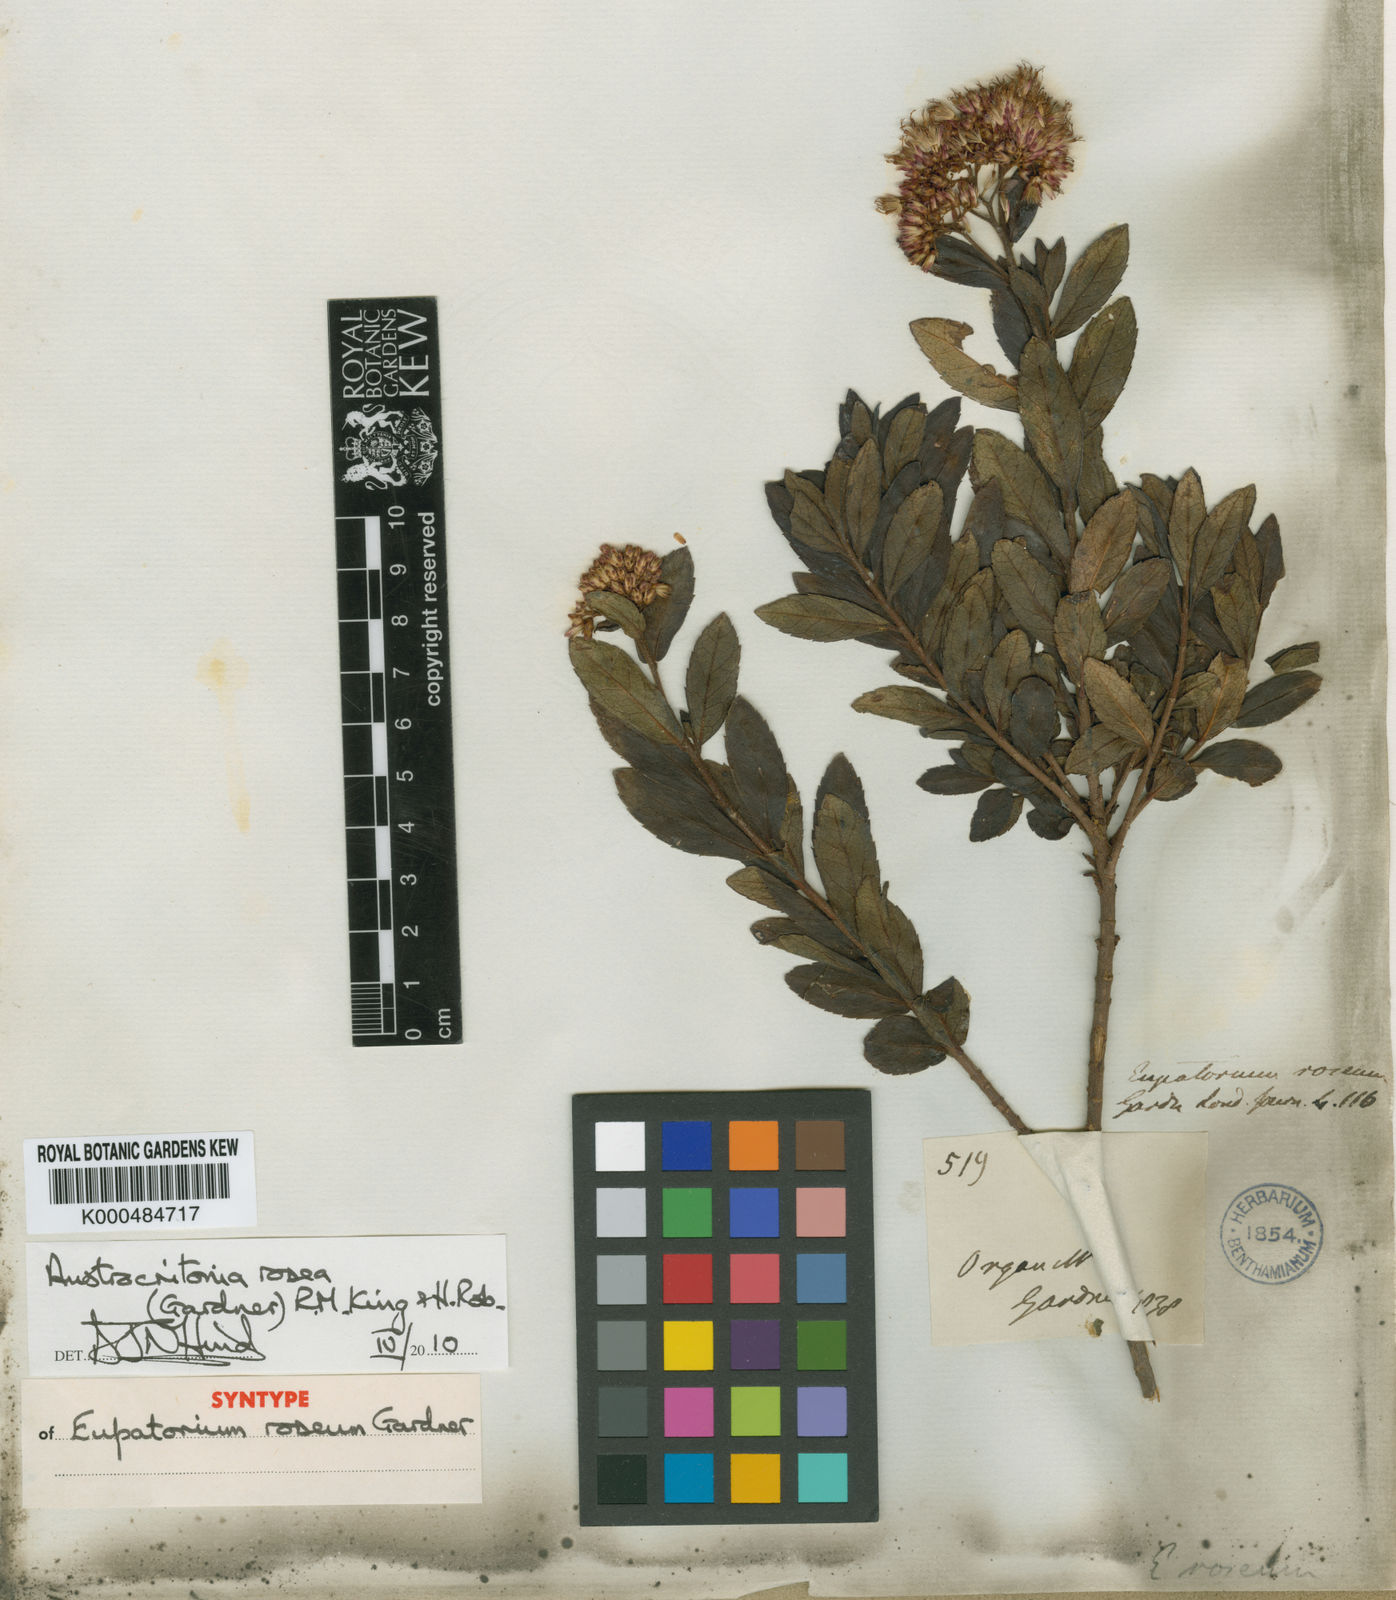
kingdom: Plantae
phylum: Tracheophyta
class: Magnoliopsida
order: Asterales
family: Asteraceae
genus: Austrocritonia
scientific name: Austrocritonia rosea
